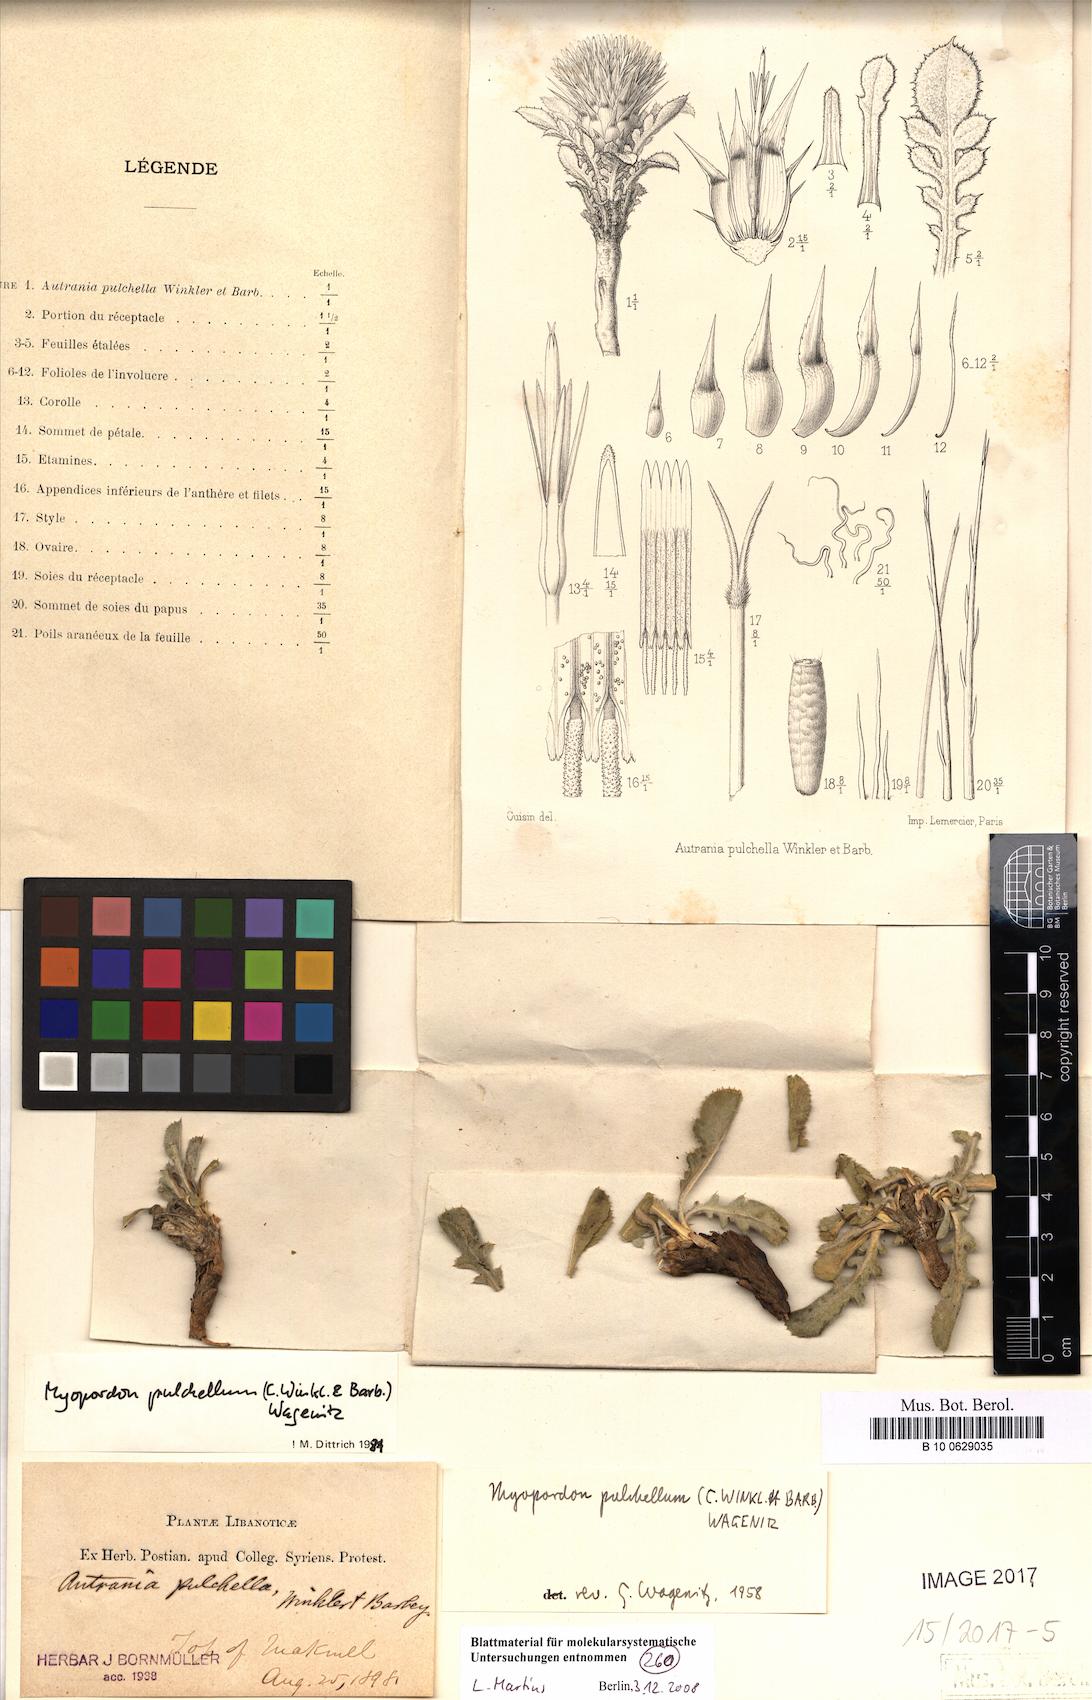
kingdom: Plantae
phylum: Tracheophyta
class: Magnoliopsida
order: Asterales
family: Asteraceae
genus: Myopordon
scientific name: Myopordon
